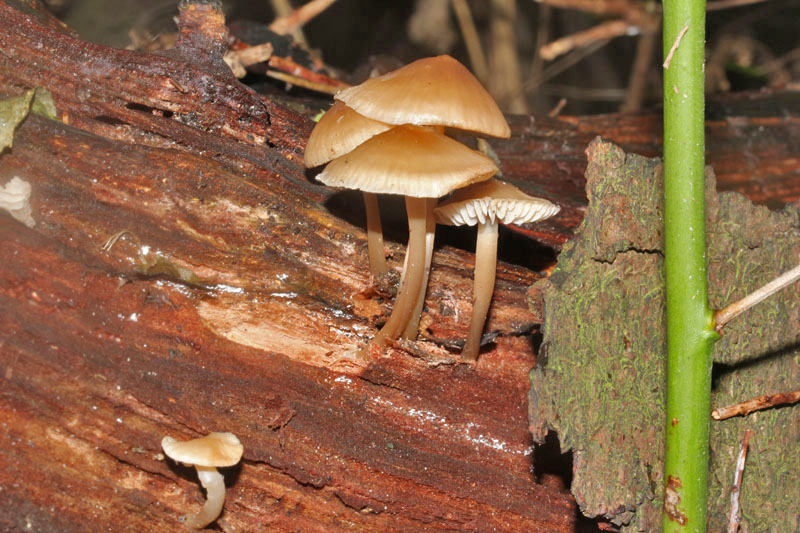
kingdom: Fungi
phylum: Basidiomycota
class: Agaricomycetes
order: Agaricales
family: Mycenaceae
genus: Mycena
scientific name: Mycena galericulata
